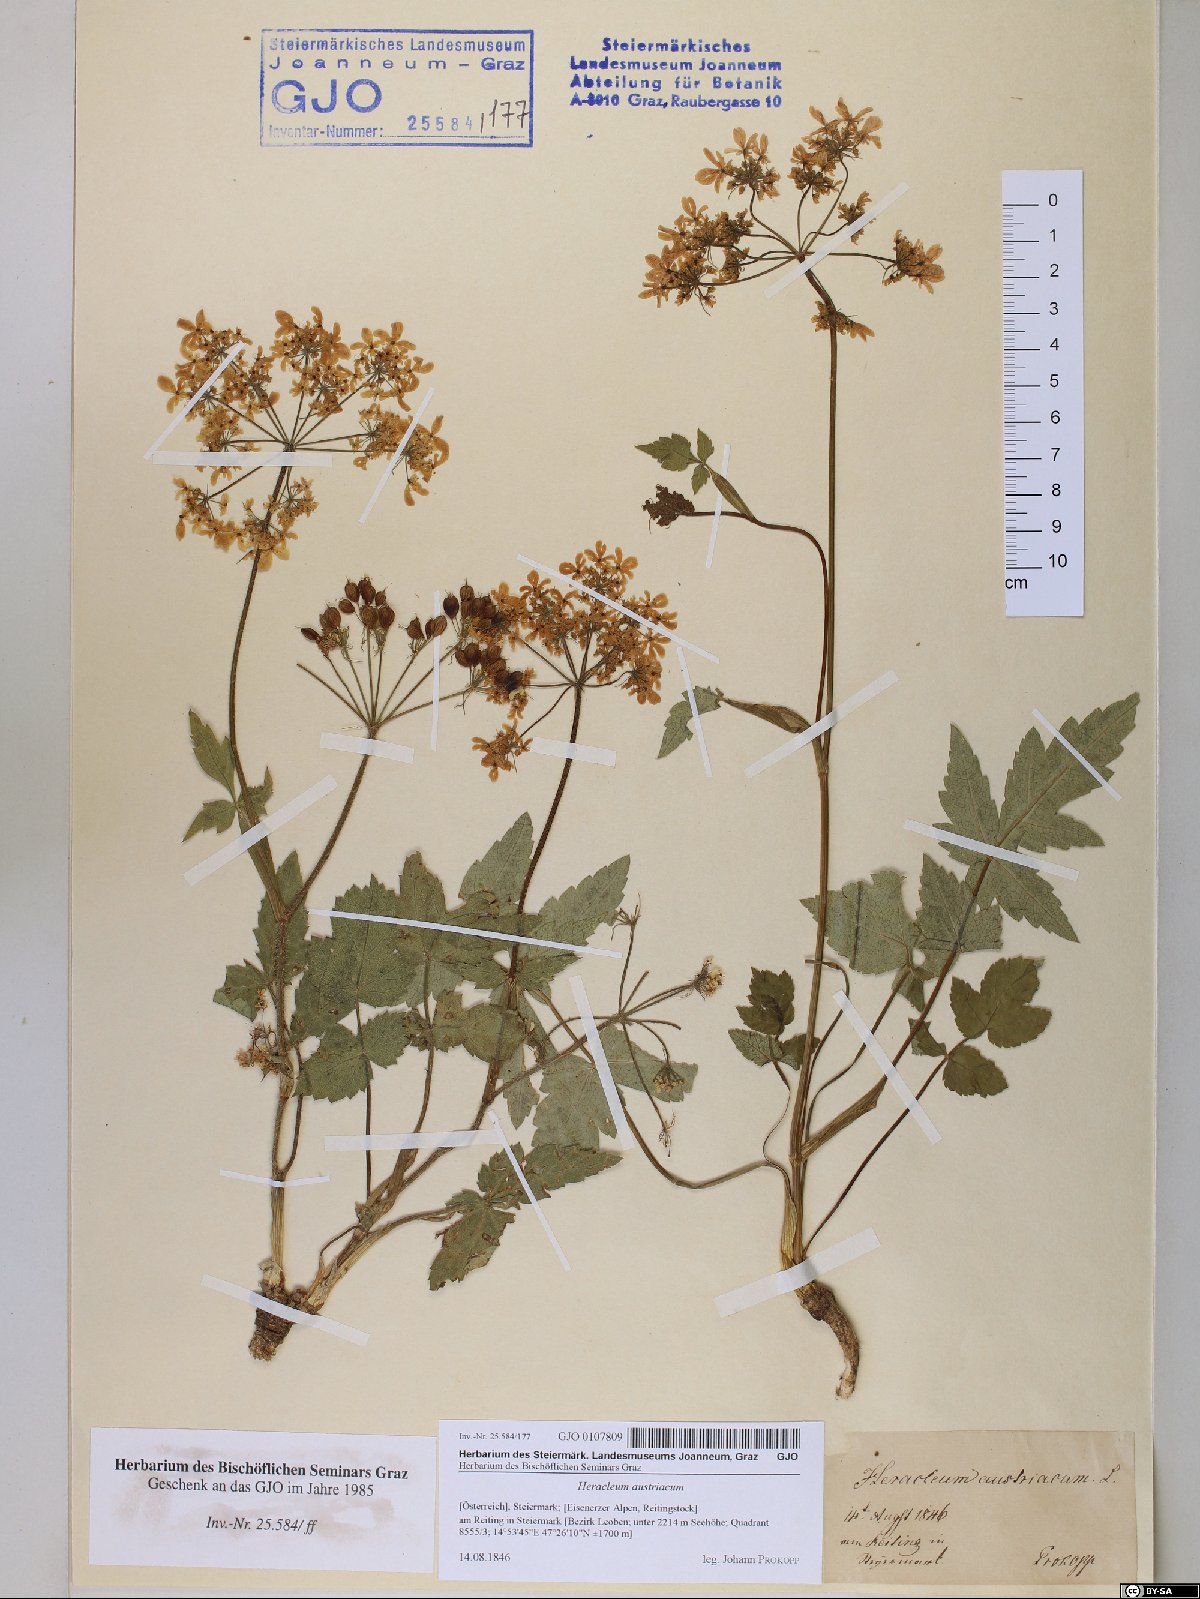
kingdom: Plantae
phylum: Tracheophyta
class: Magnoliopsida
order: Apiales
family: Apiaceae
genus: Heracleum
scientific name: Heracleum austriacum
